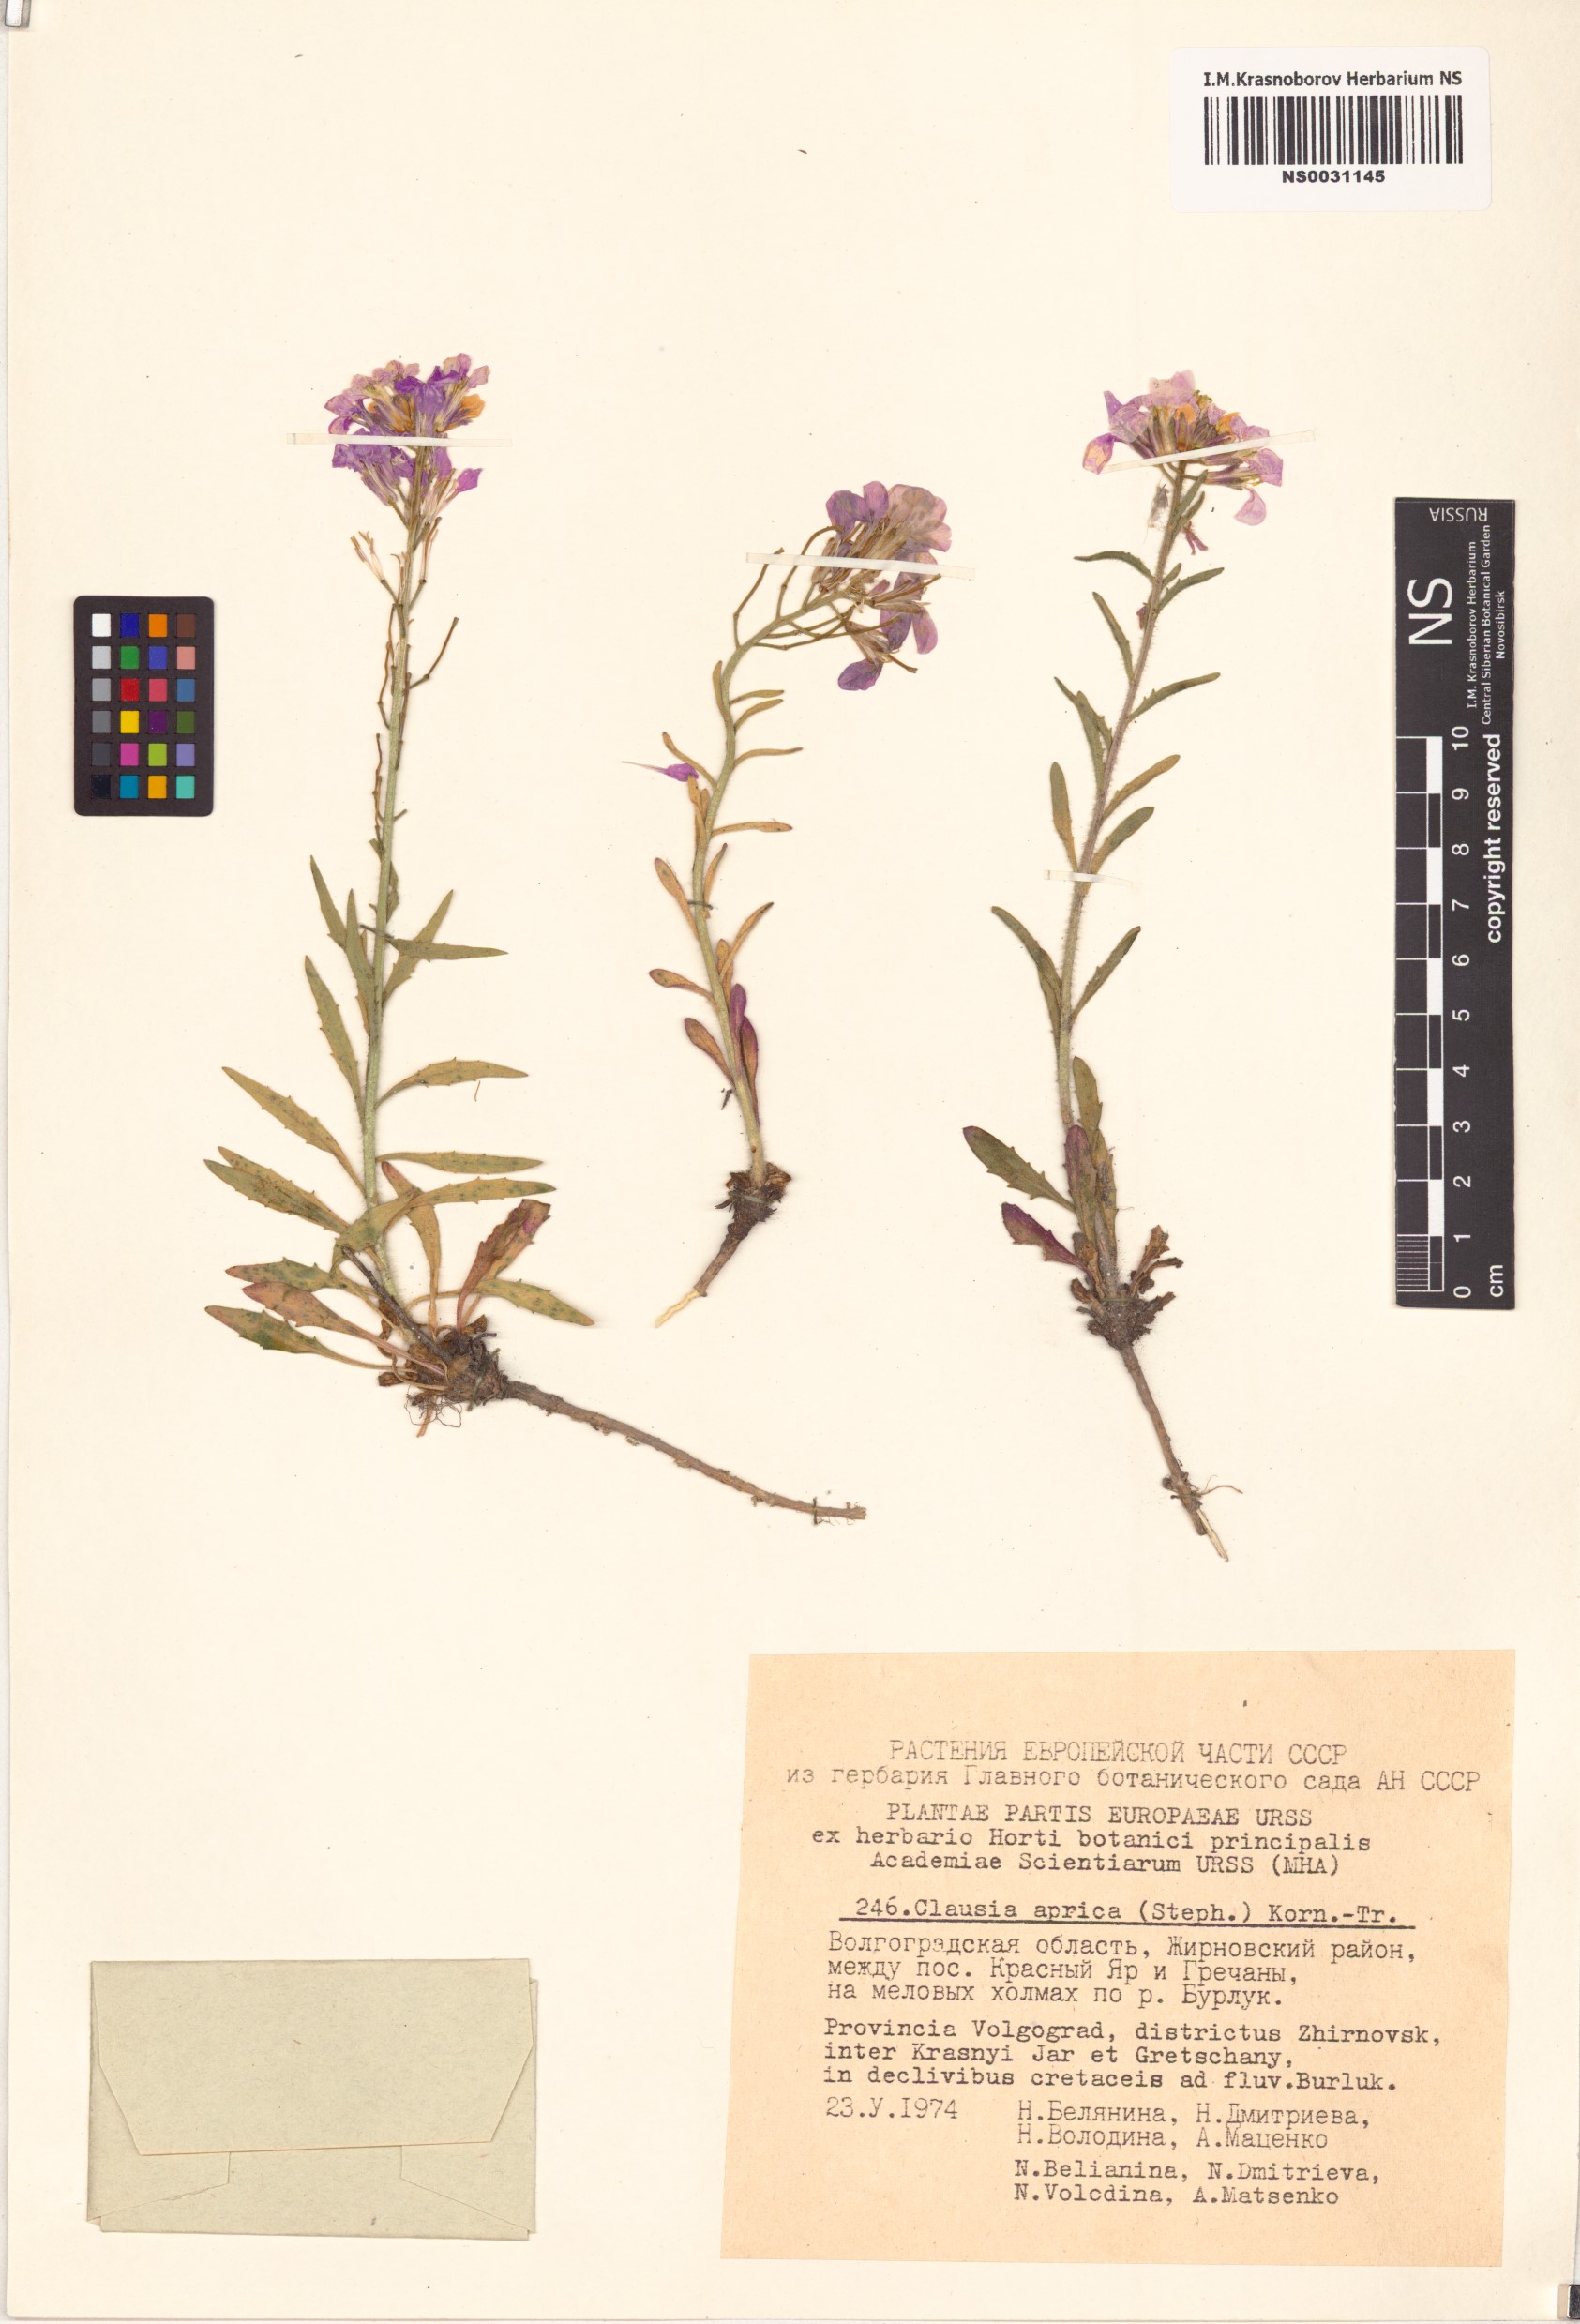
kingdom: Plantae
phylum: Tracheophyta
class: Magnoliopsida
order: Brassicales
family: Brassicaceae
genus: Clausia
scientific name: Clausia aprica
